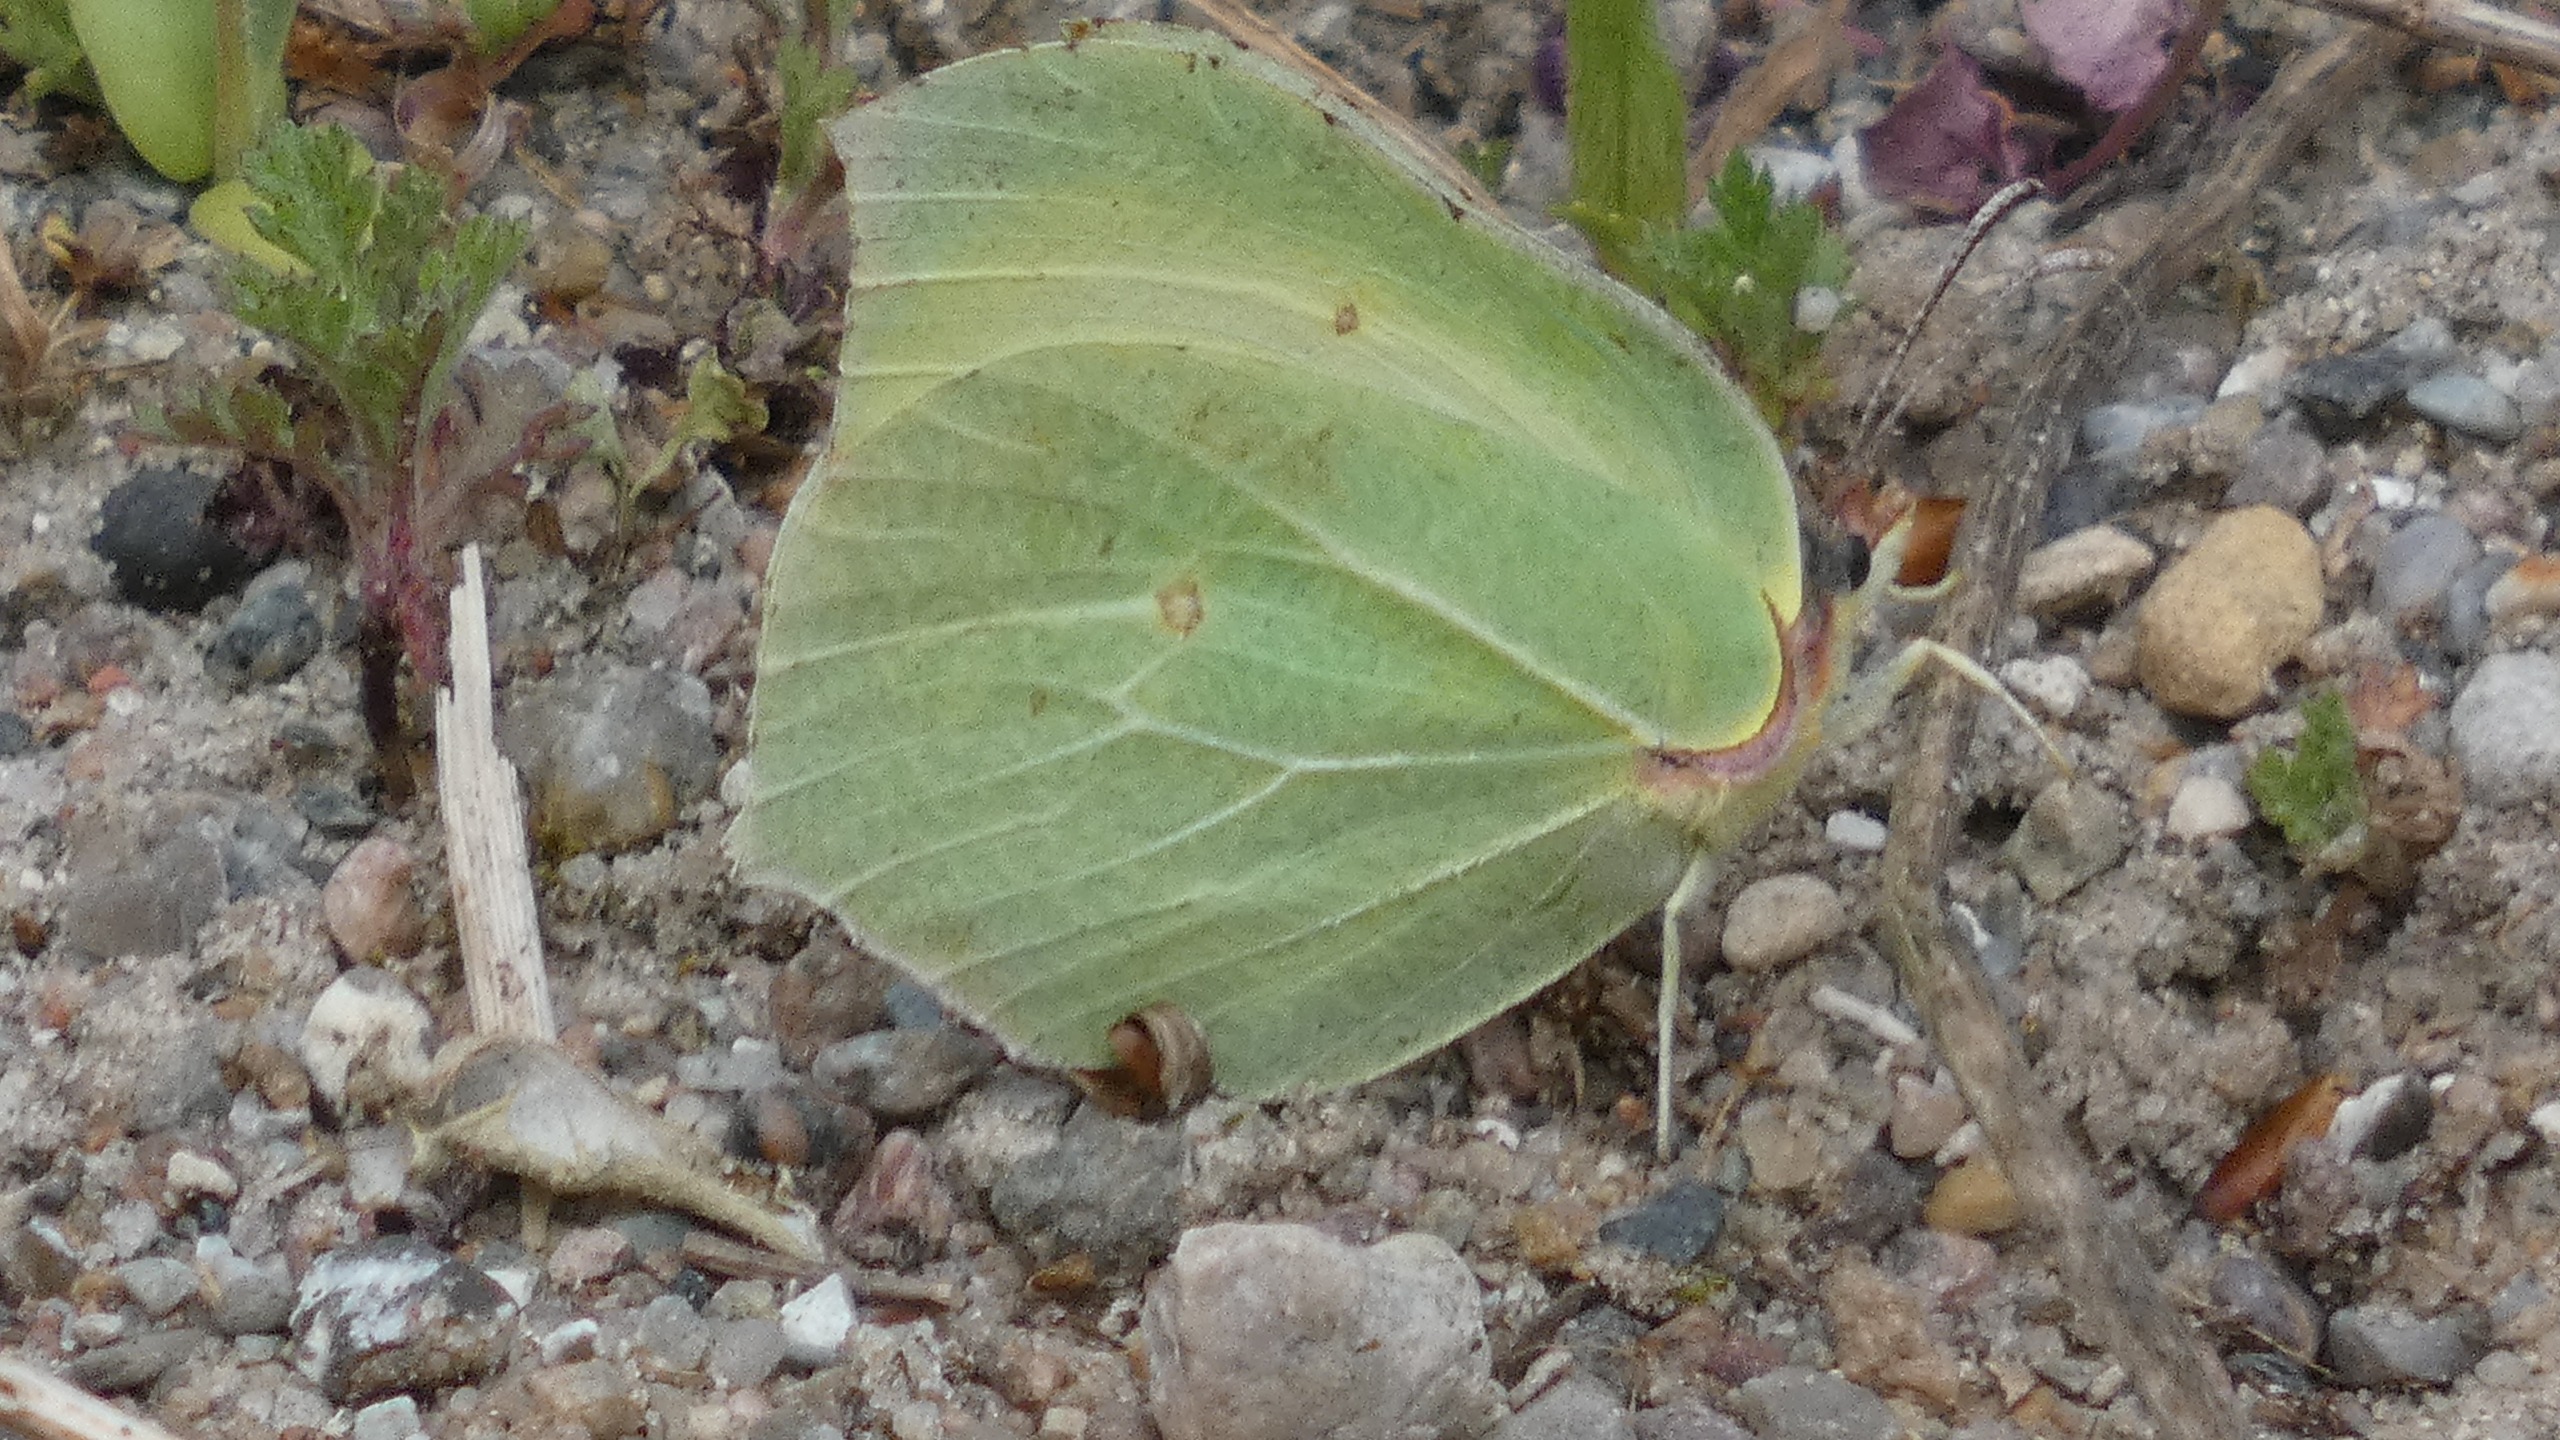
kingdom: Animalia
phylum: Arthropoda
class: Insecta
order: Lepidoptera
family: Pieridae
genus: Gonepteryx
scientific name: Gonepteryx rhamni
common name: Citronsommerfugl
